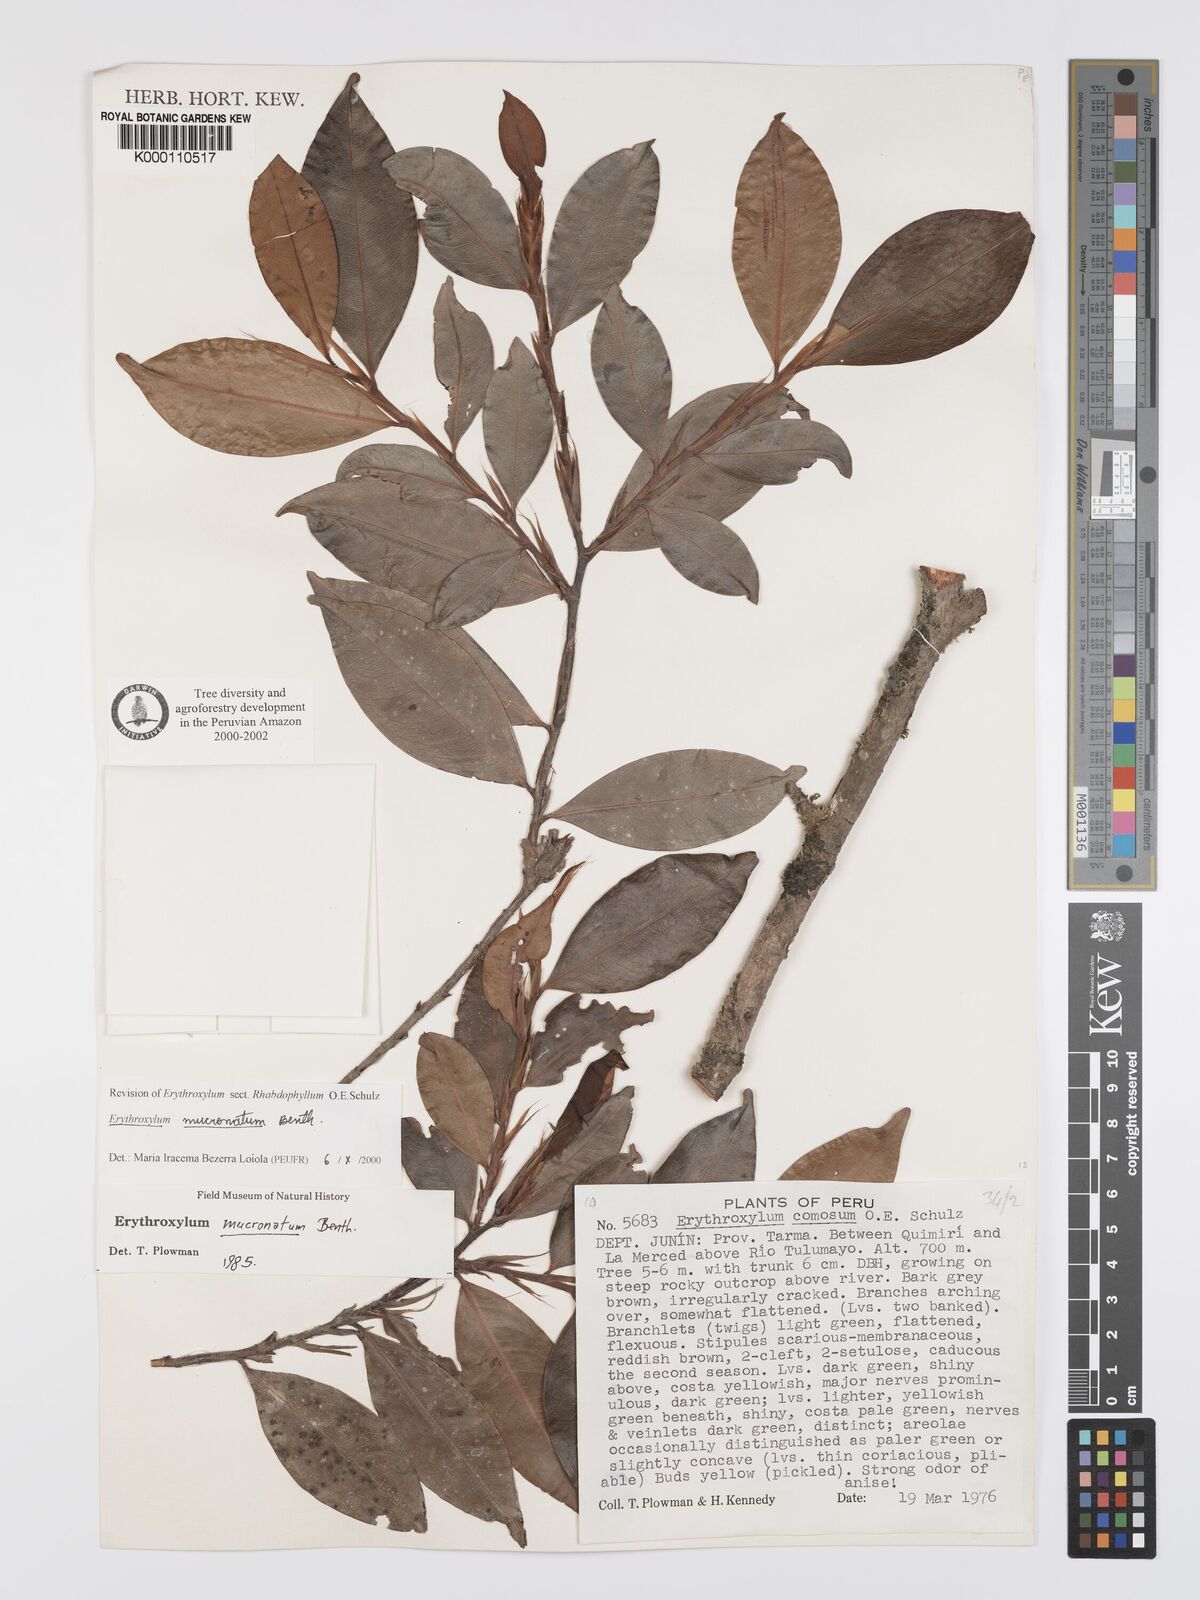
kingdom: Plantae
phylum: Tracheophyta
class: Magnoliopsida
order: Malpighiales
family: Erythroxylaceae
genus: Erythroxylum
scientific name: Erythroxylum mucronatum
